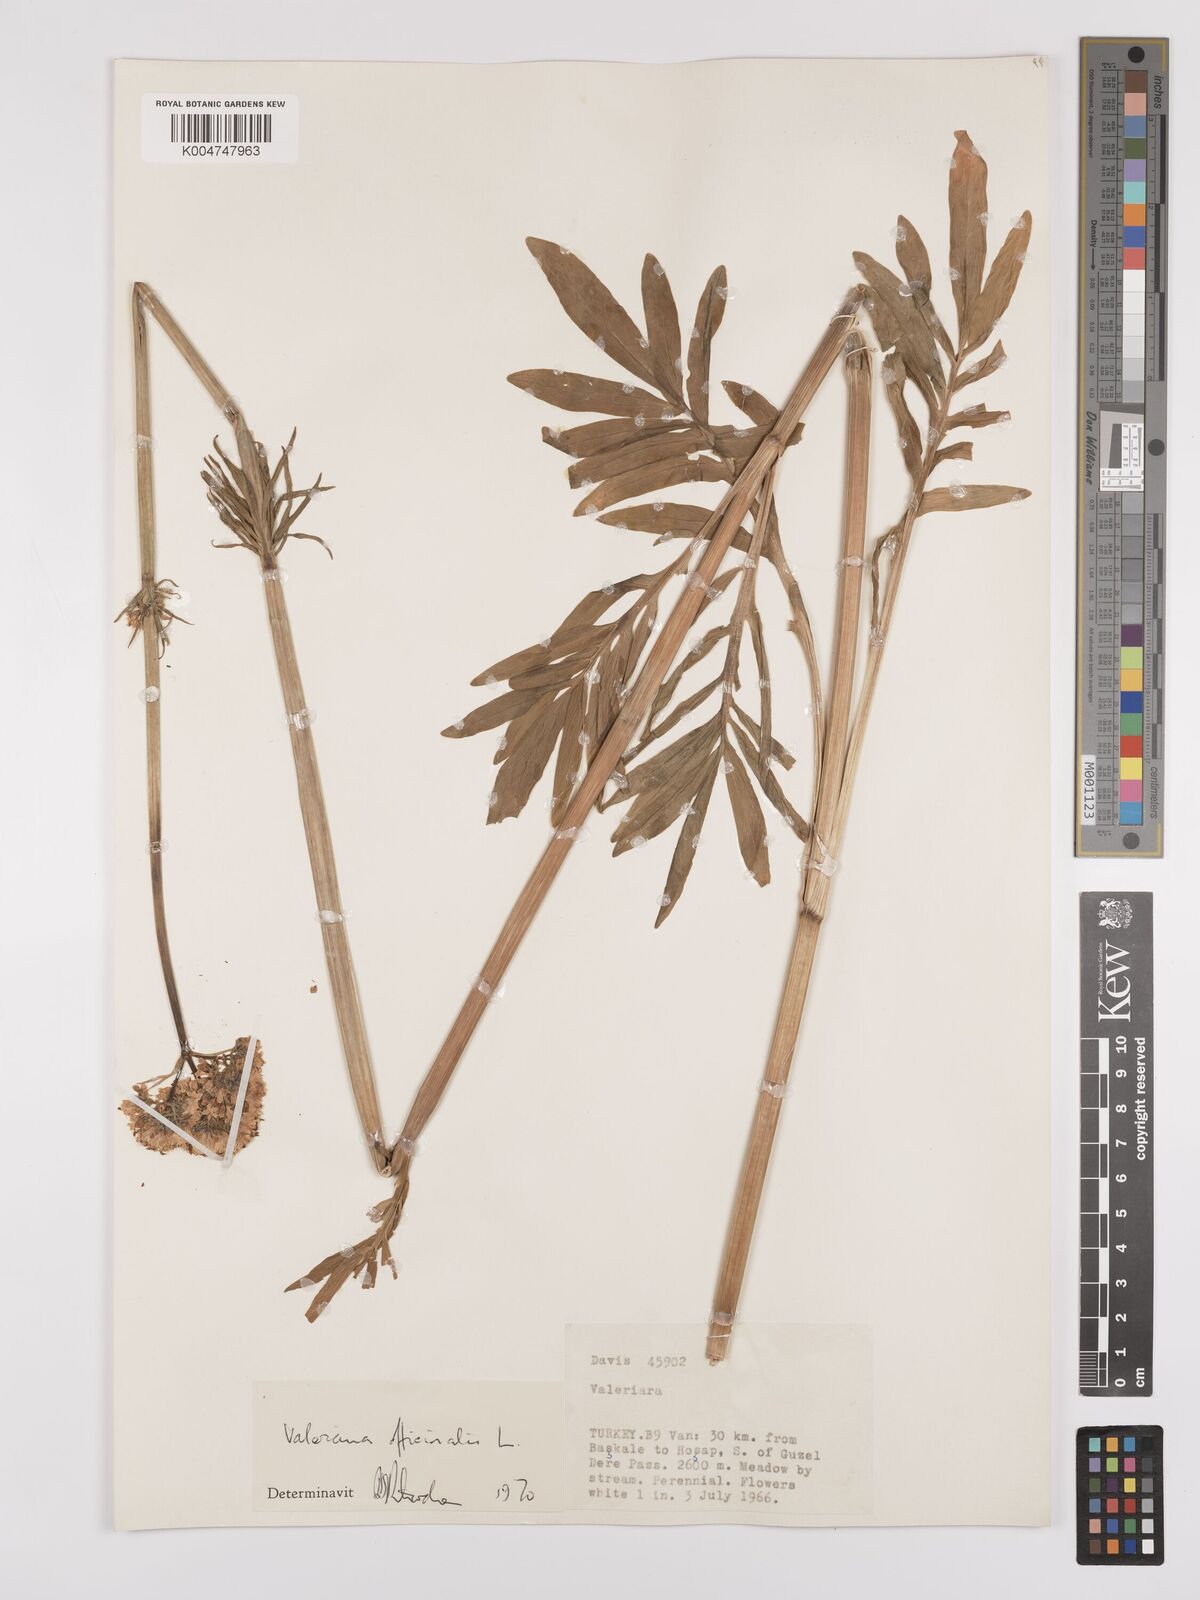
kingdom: Plantae
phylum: Tracheophyta
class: Magnoliopsida
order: Dipsacales
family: Caprifoliaceae
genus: Valeriana
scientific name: Valeriana officinalis
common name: Common valerian
